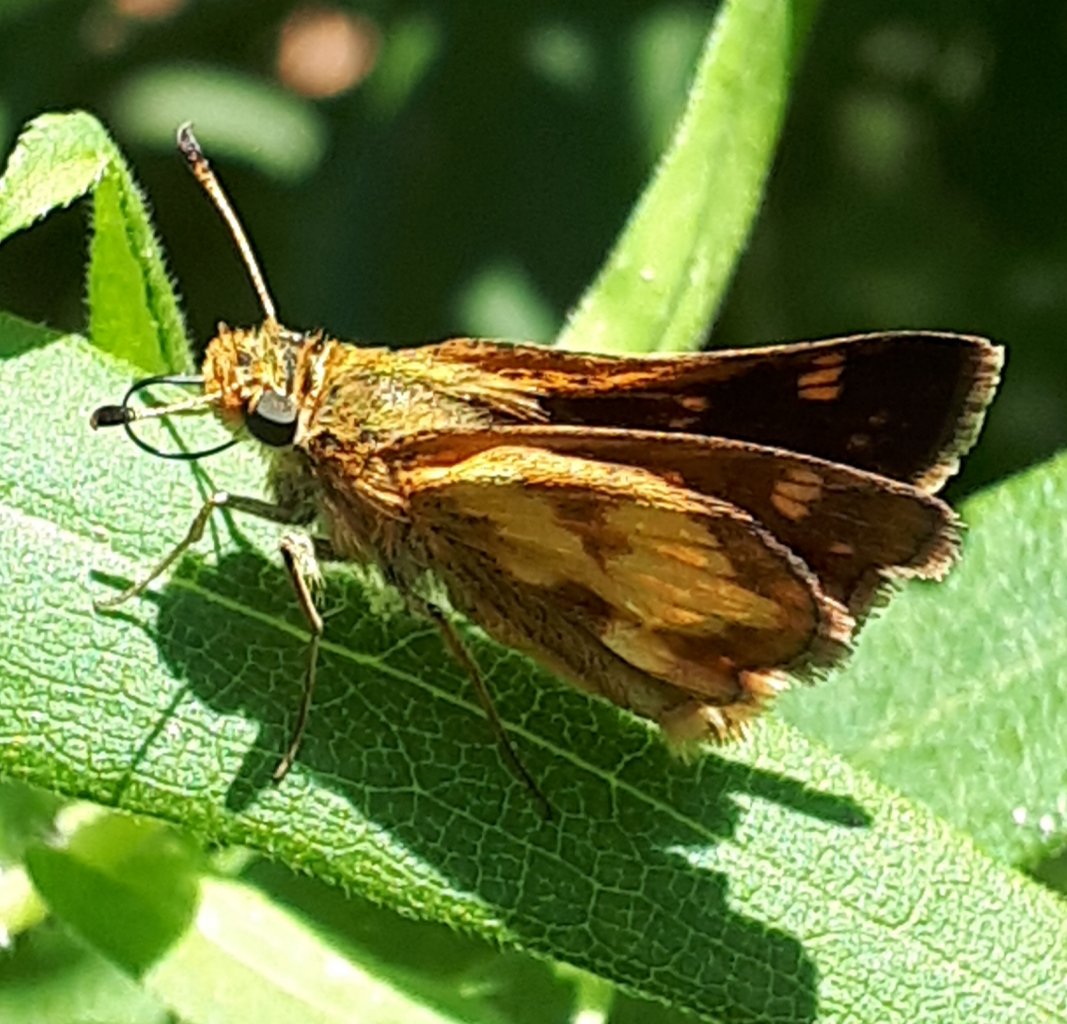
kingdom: Animalia
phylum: Arthropoda
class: Insecta
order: Lepidoptera
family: Hesperiidae
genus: Polites
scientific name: Polites coras
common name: Peck's Skipper
